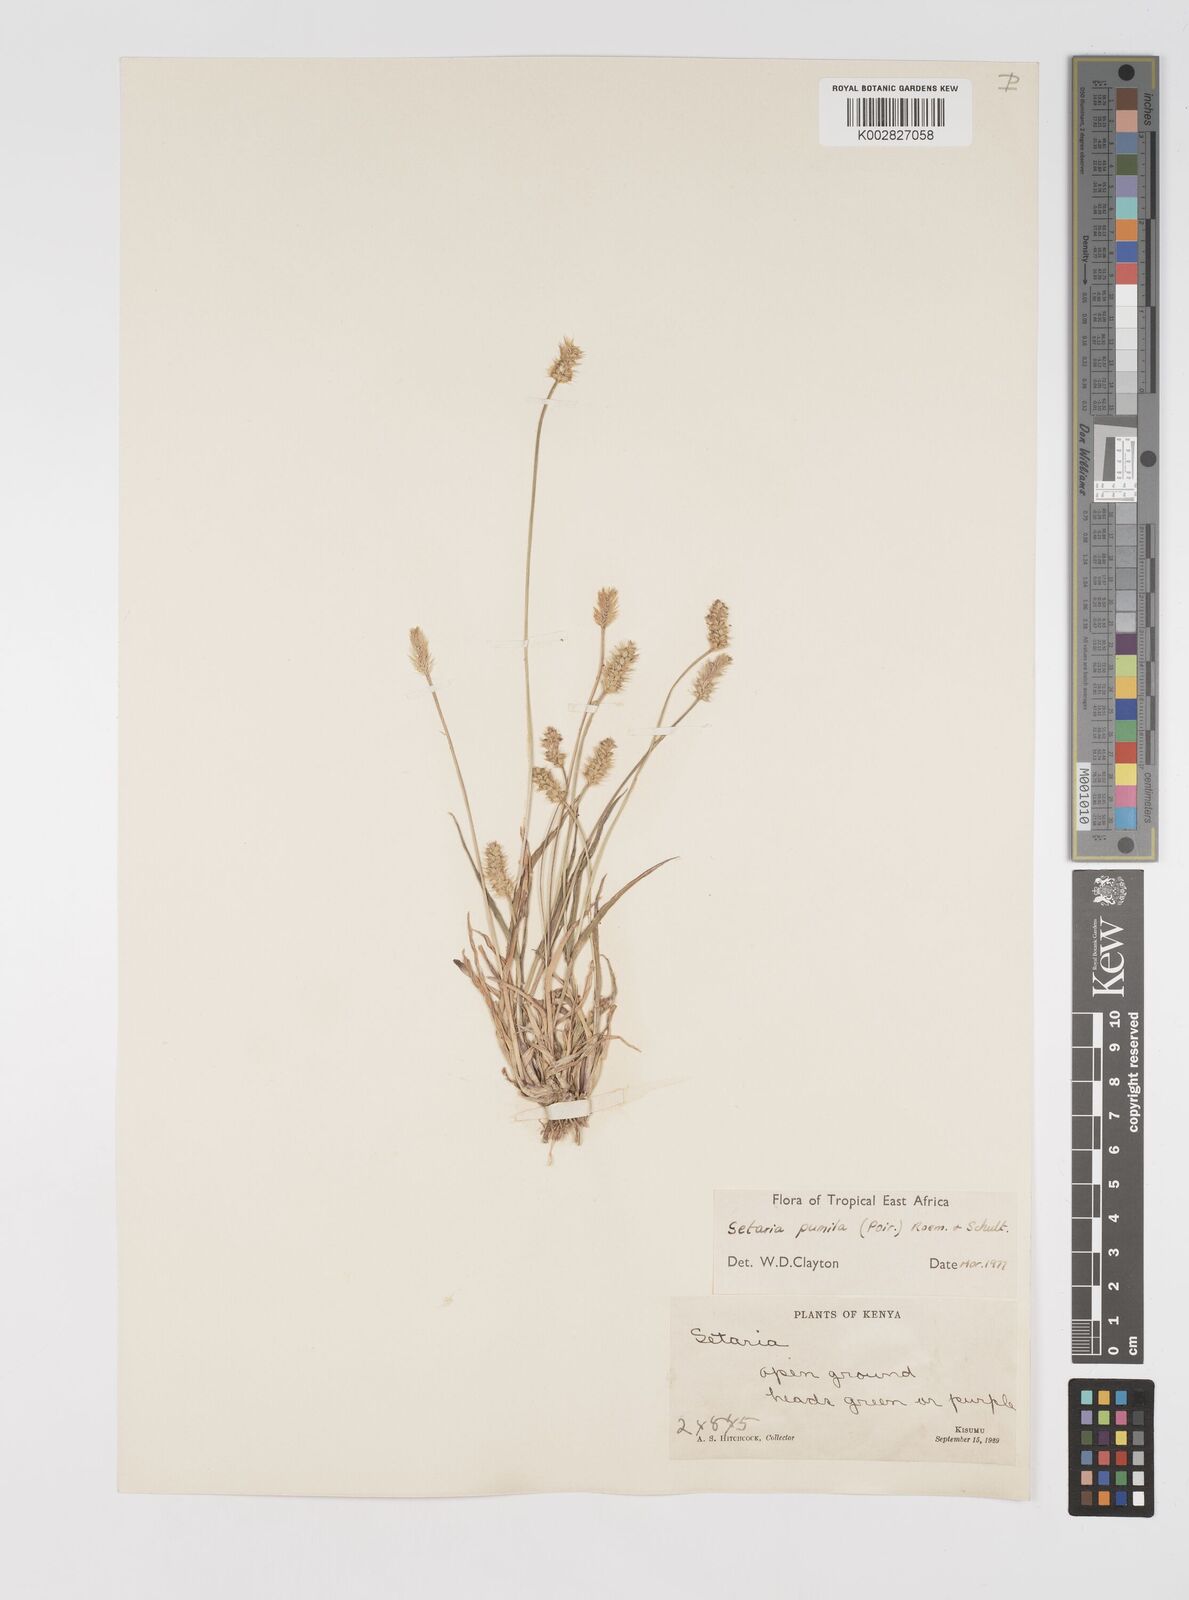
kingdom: Plantae
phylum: Tracheophyta
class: Liliopsida
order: Poales
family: Poaceae
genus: Setaria
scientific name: Setaria pumila
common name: Yellow bristle-grass
